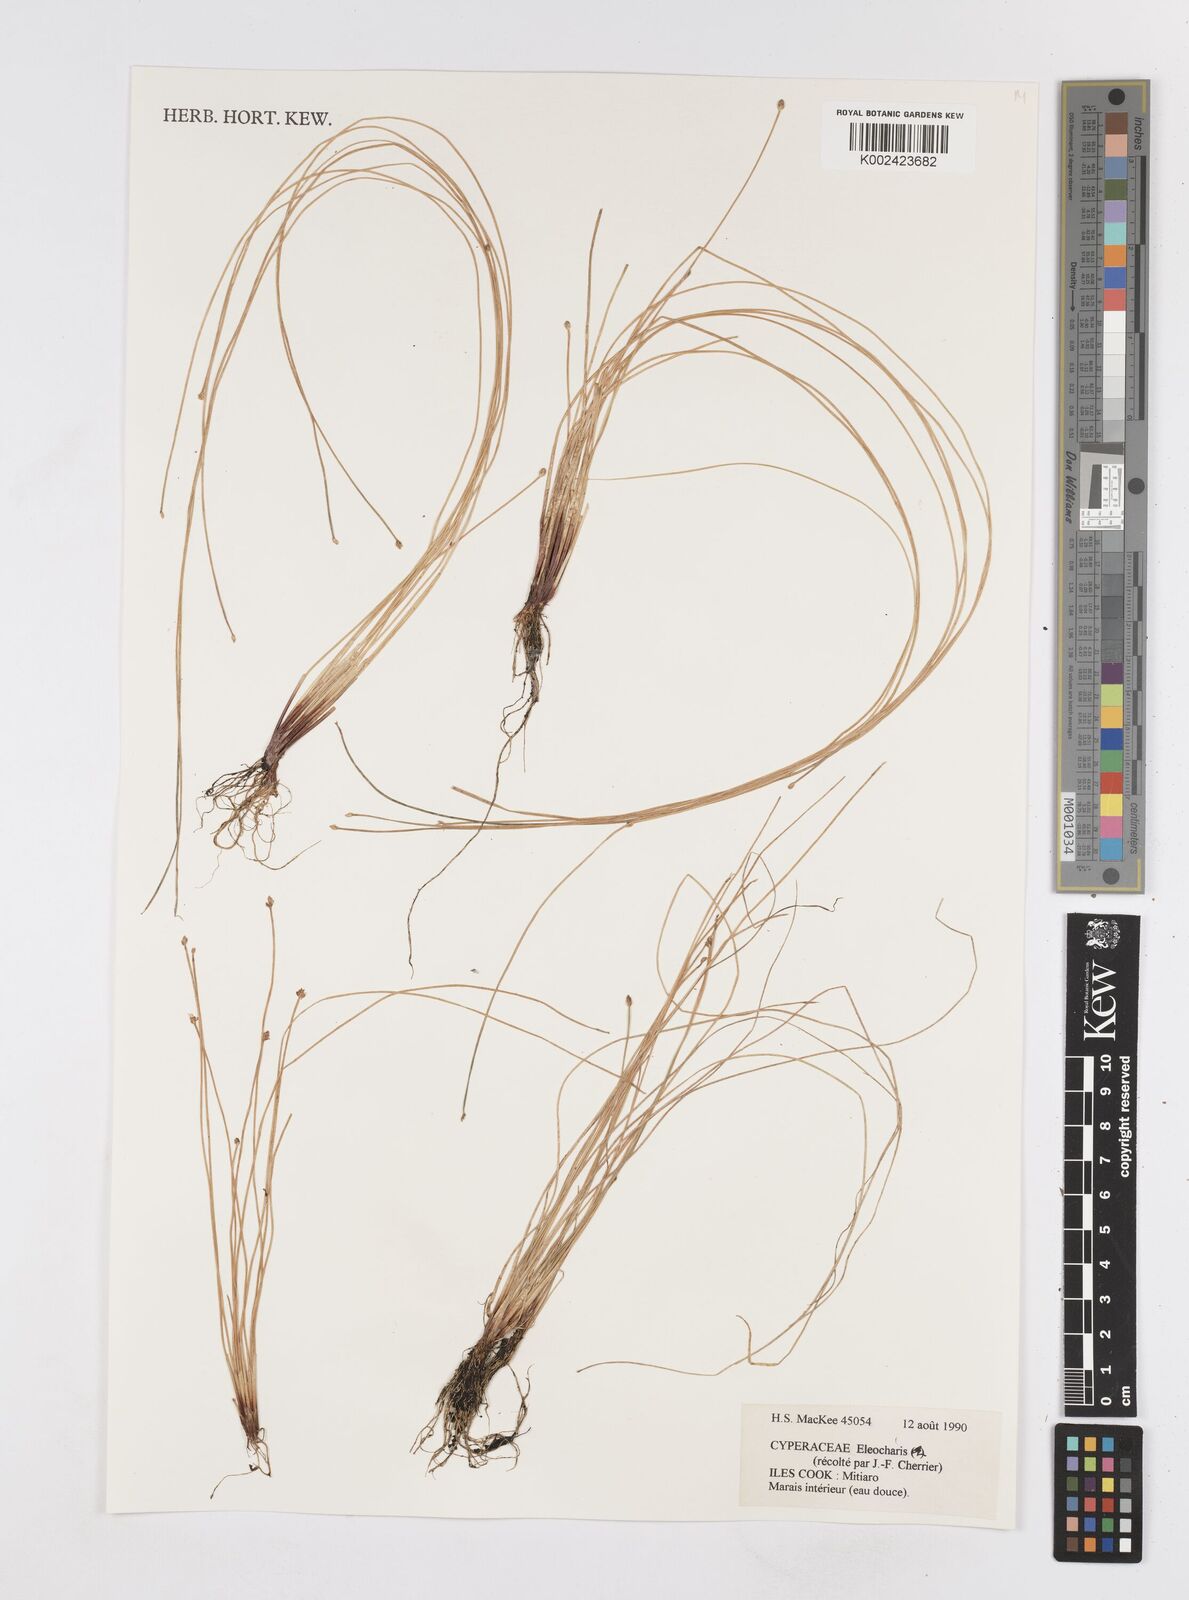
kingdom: Plantae
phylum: Tracheophyta
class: Liliopsida
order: Poales
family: Cyperaceae
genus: Eleocharis
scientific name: Eleocharis
